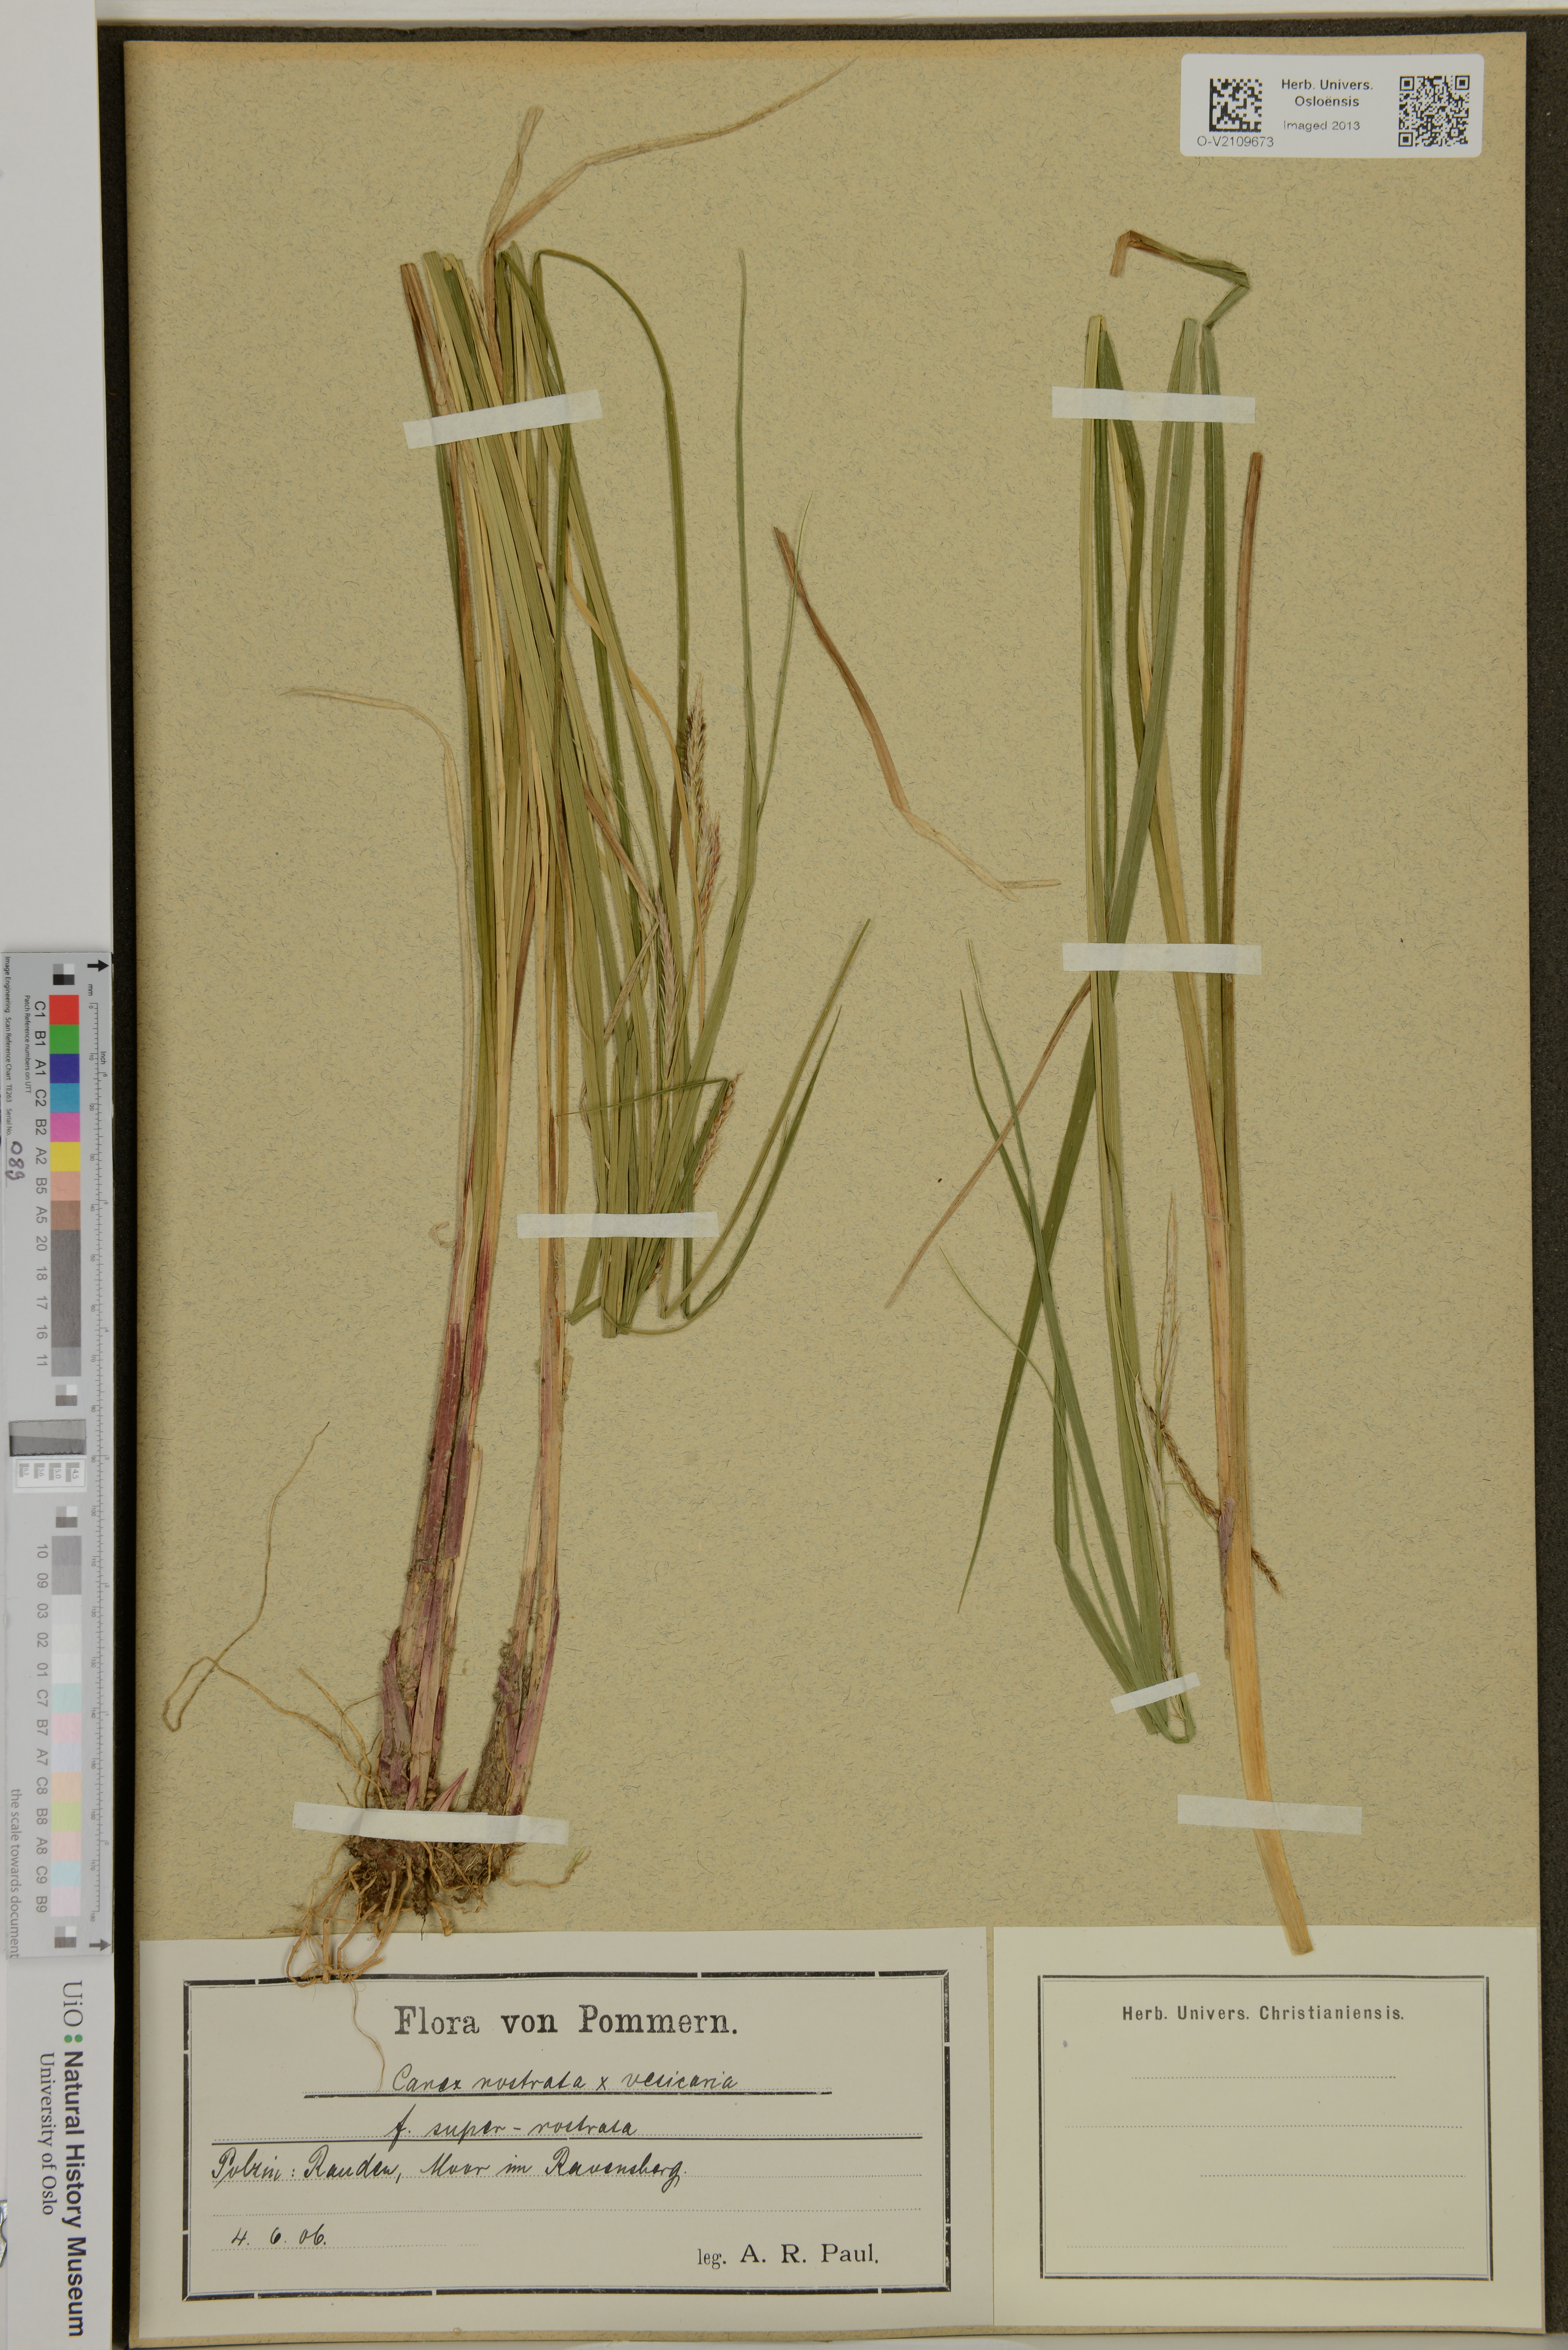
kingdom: Plantae
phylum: Tracheophyta
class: Liliopsida
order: Poales
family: Cyperaceae
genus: Carex
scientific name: Carex
